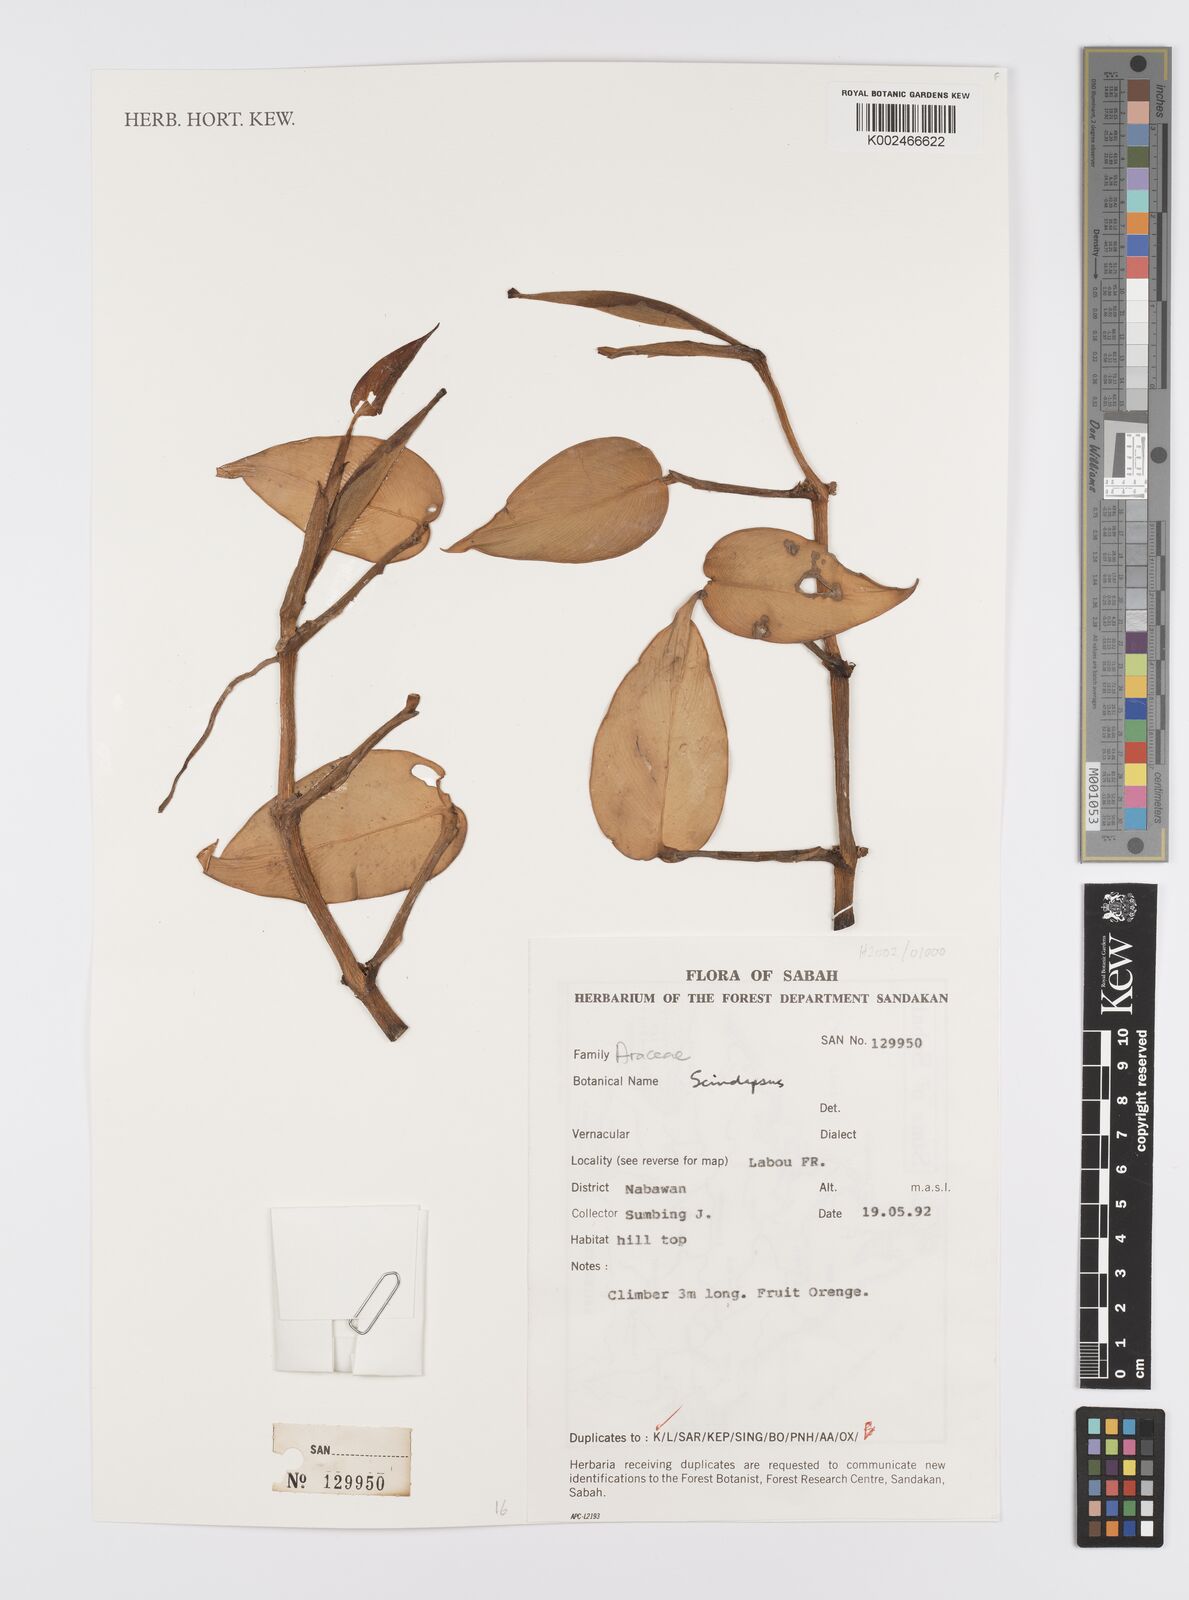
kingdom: Plantae
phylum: Tracheophyta
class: Liliopsida
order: Alismatales
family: Araceae
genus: Scindapsus
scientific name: Scindapsus
